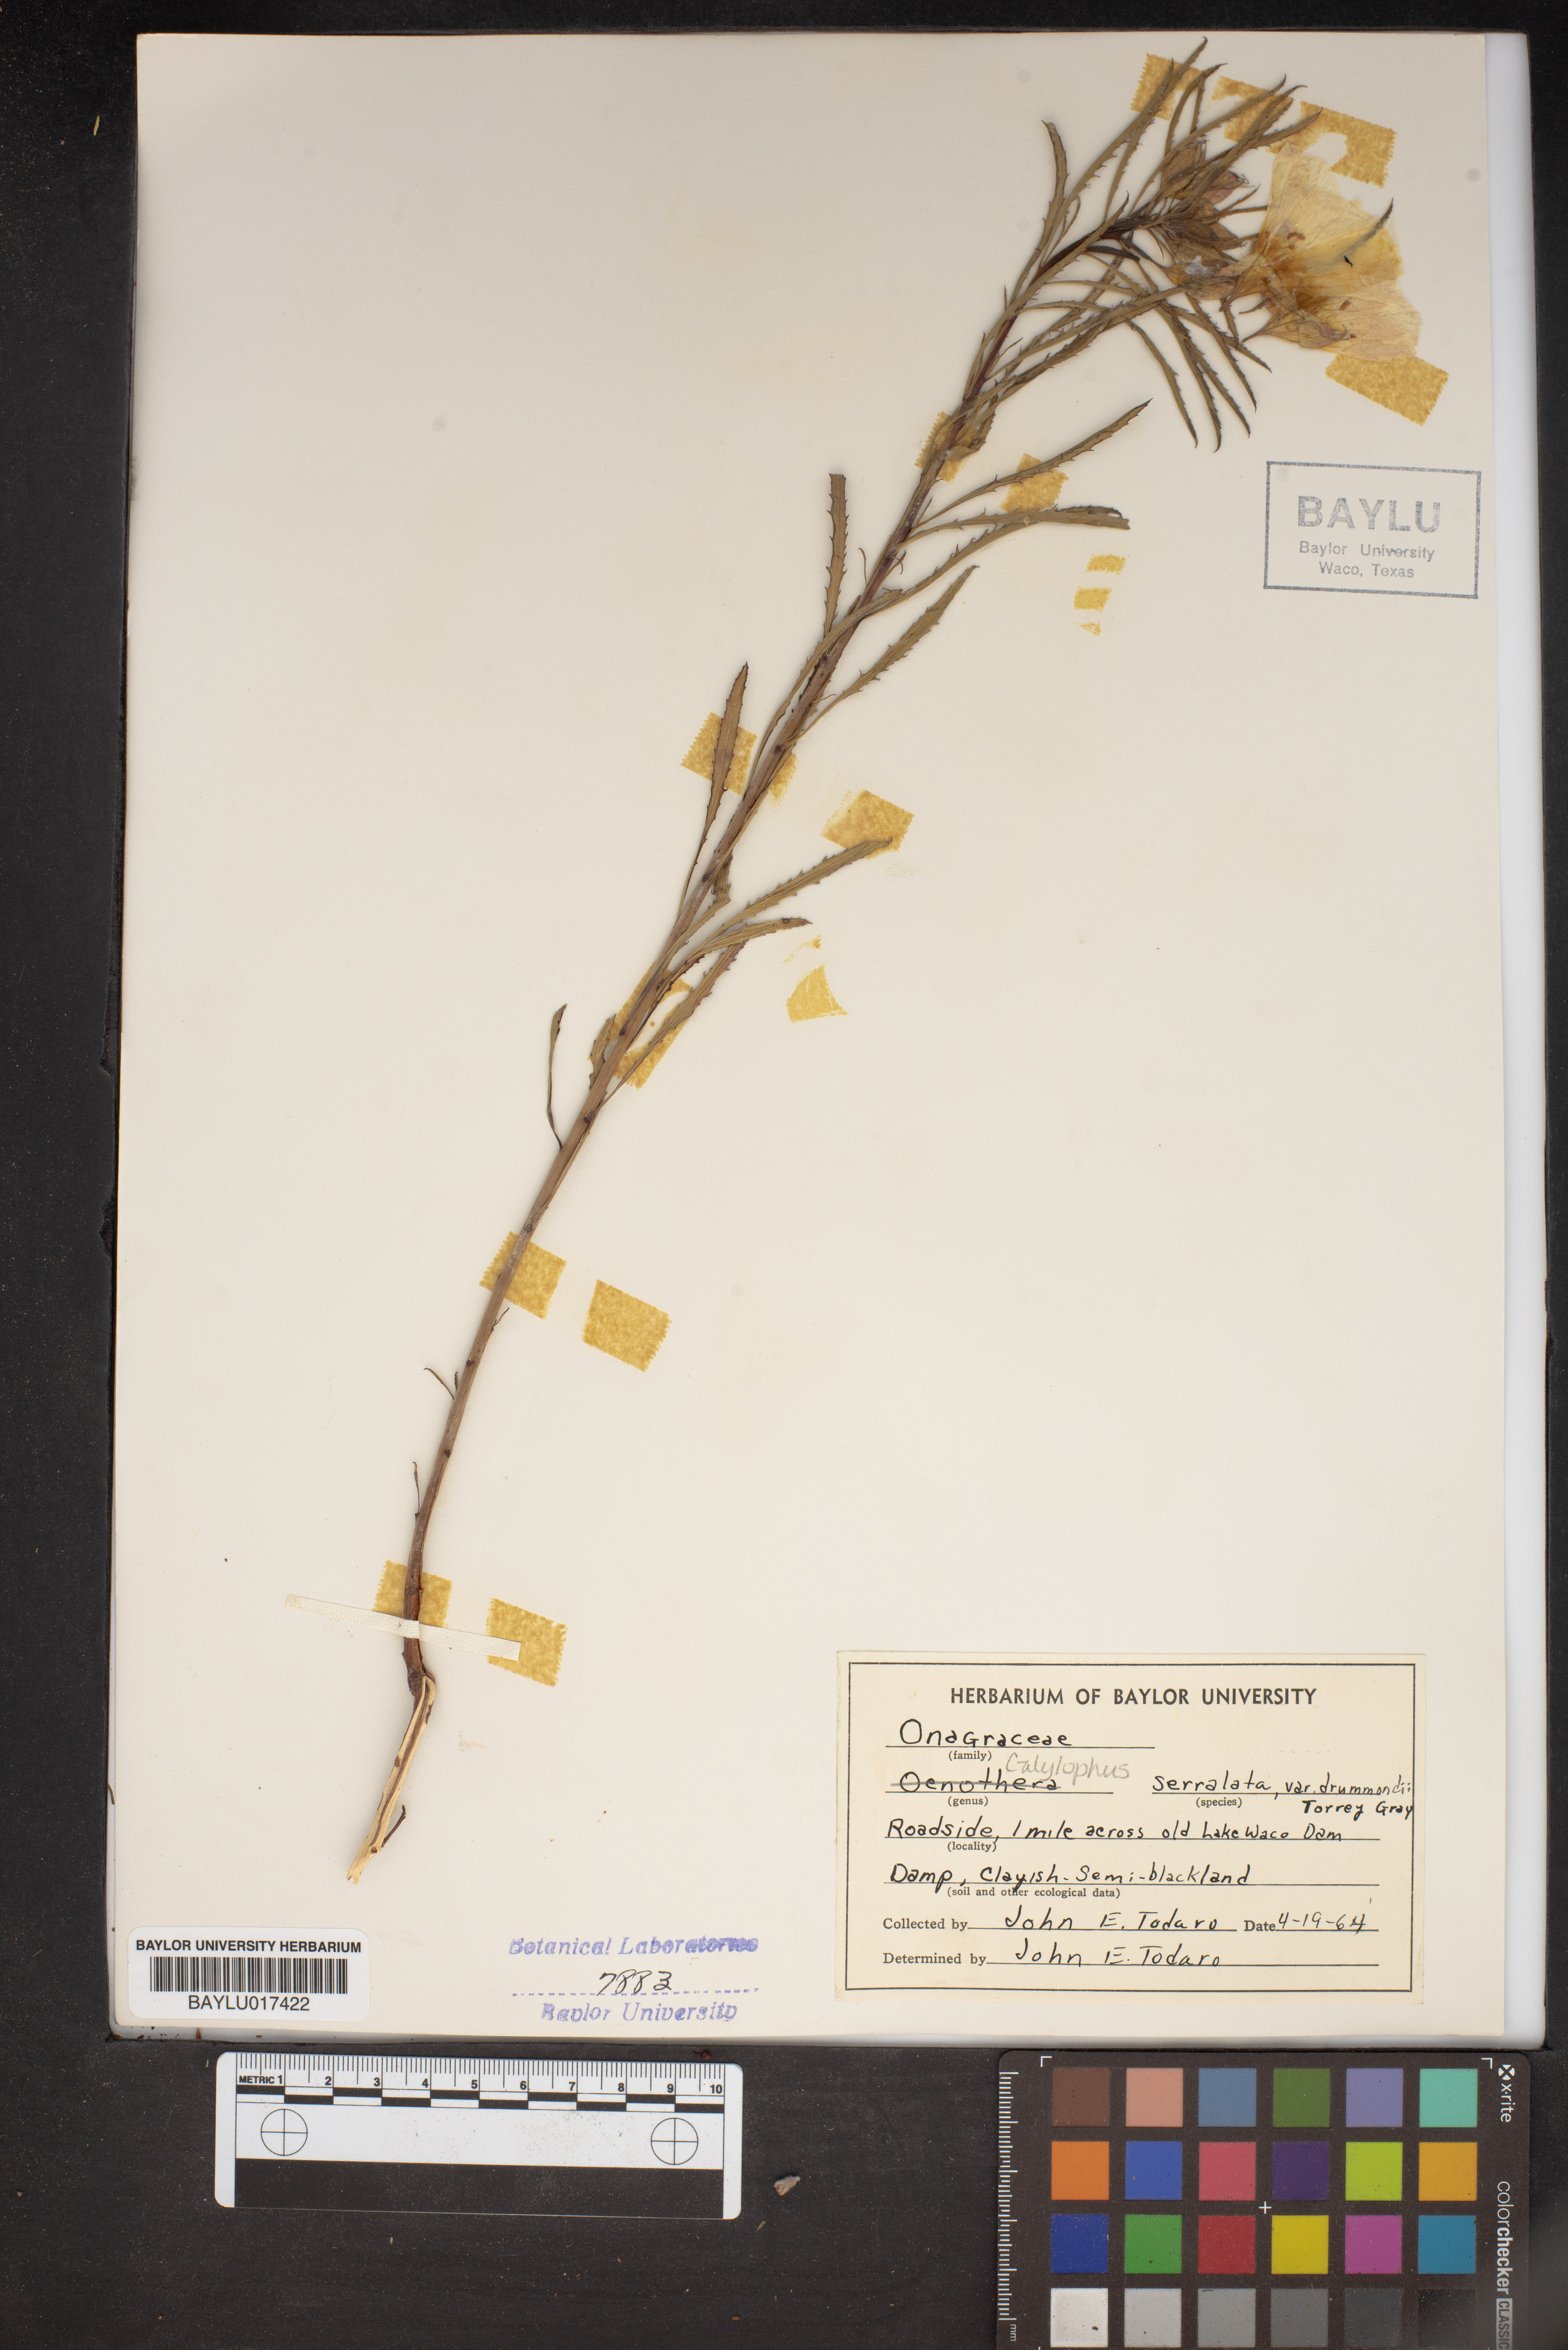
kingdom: Plantae
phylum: Tracheophyta
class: Magnoliopsida
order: Myrtales
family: Onagraceae
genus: Oenothera
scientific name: Oenothera serrulata
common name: Half-shrub calylophus
